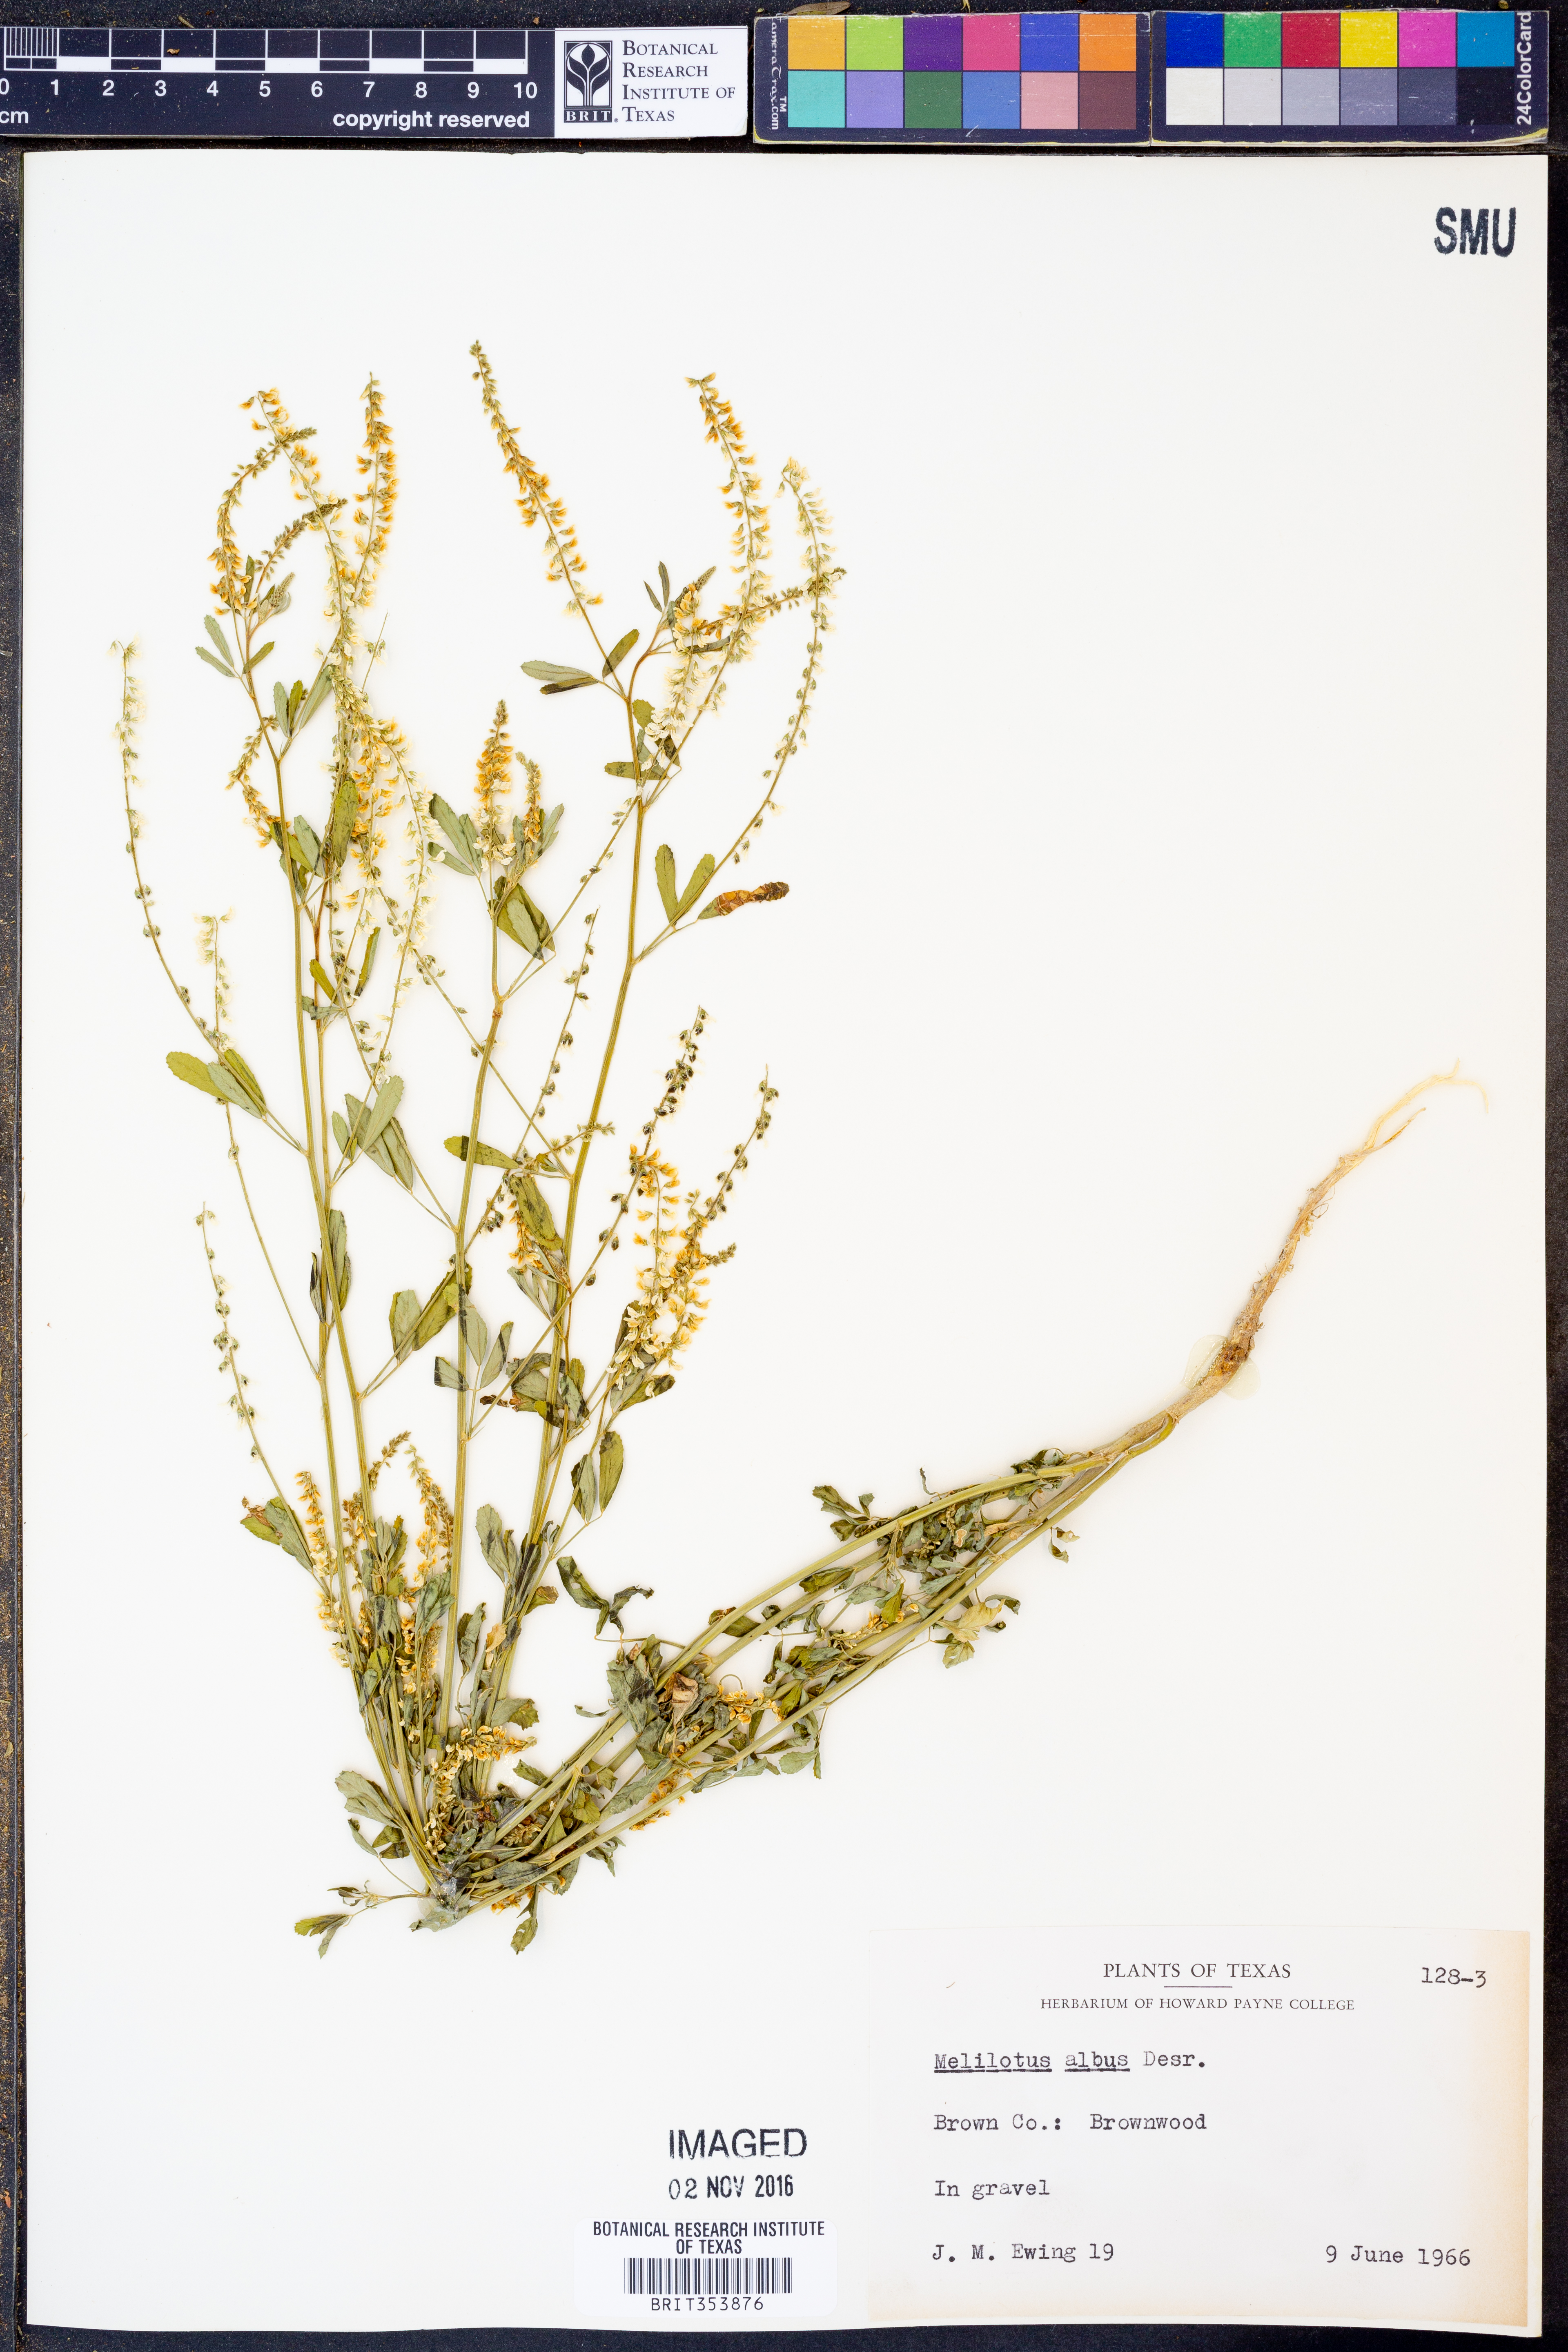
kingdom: Plantae
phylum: Tracheophyta
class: Magnoliopsida
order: Fabales
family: Fabaceae
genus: Melilotus
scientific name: Melilotus albus
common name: White melilot
